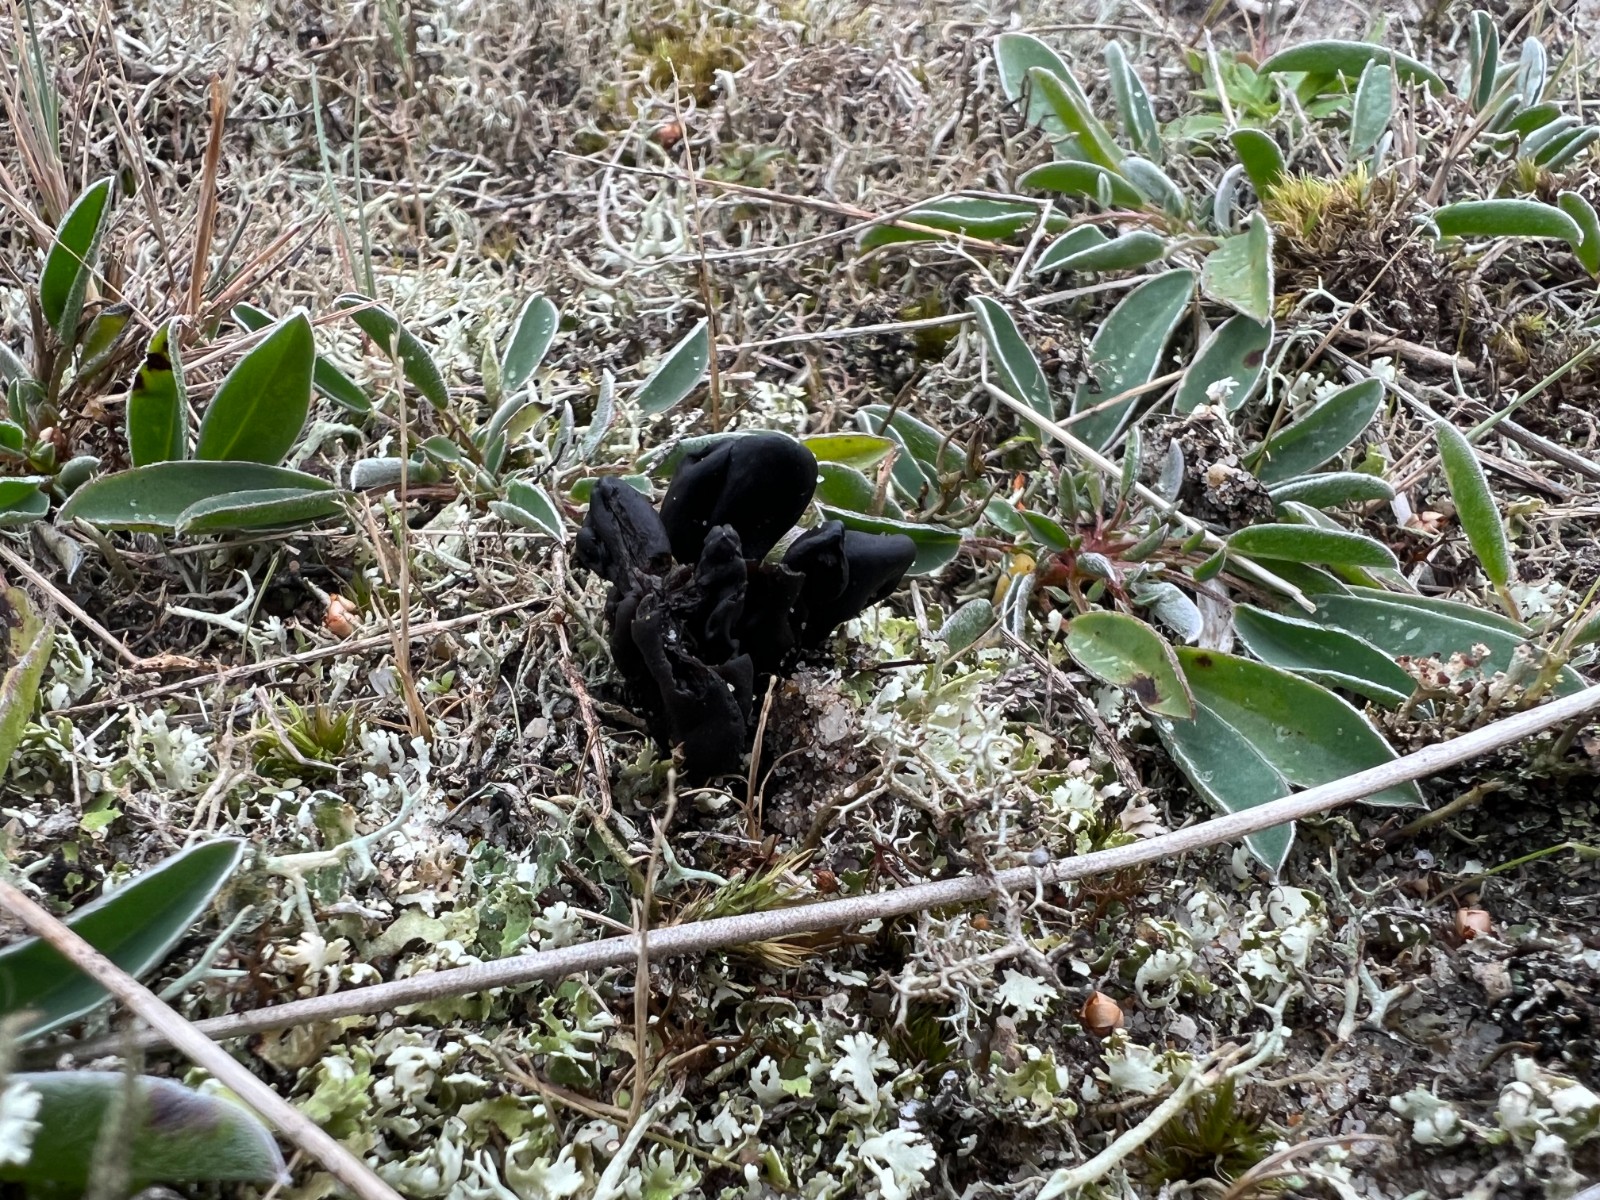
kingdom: Fungi
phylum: Ascomycota
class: Geoglossomycetes
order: Geoglossales
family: Geoglossaceae
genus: Sabuloglossum
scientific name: Sabuloglossum arenarium
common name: klit-jordtunge
